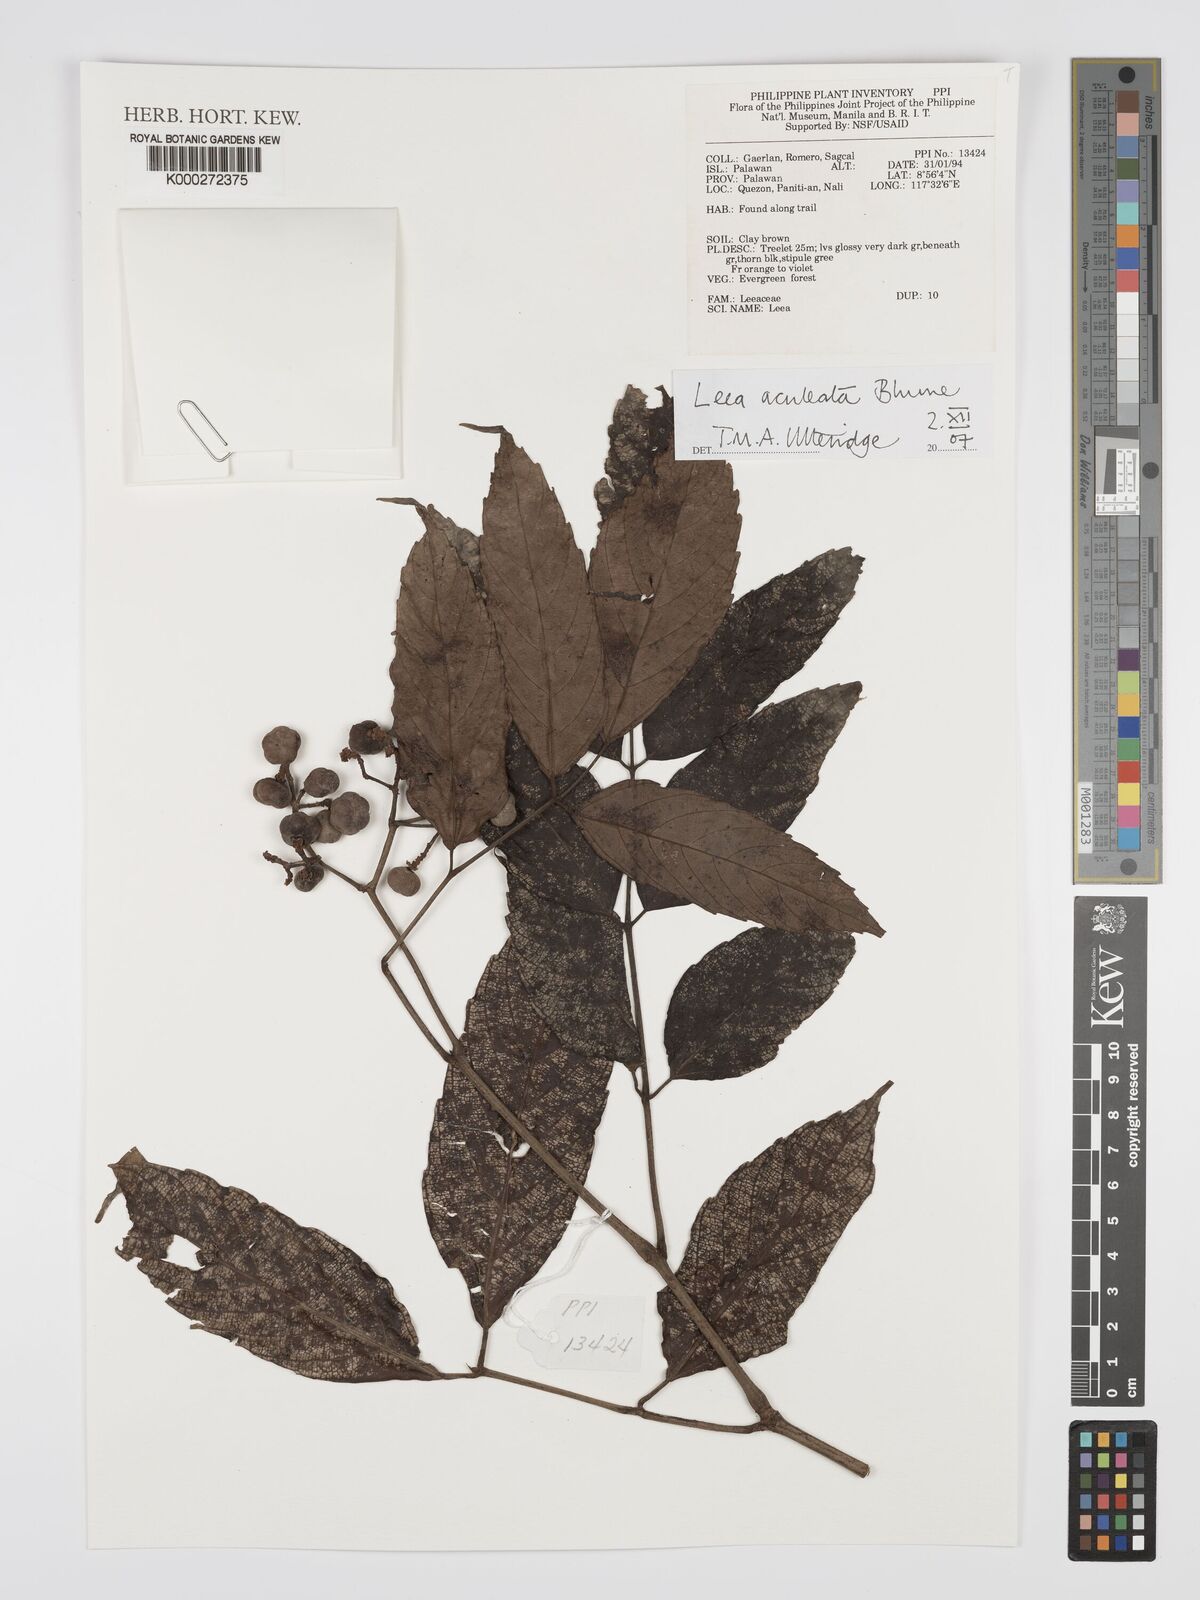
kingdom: Plantae
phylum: Tracheophyta
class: Magnoliopsida
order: Vitales
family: Vitaceae
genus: Leea
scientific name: Leea aculeata
